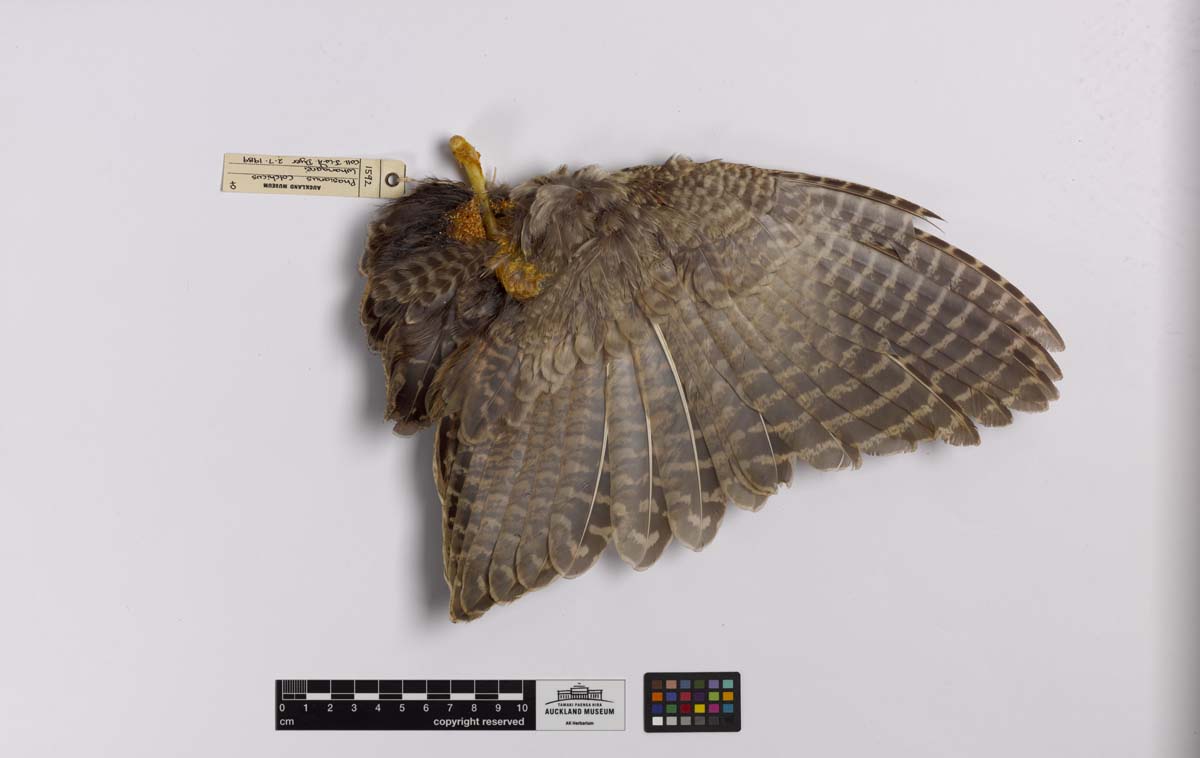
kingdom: Animalia
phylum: Chordata
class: Aves
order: Galliformes
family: Phasianidae
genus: Phasianus
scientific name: Phasianus colchicus
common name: Common pheasant
